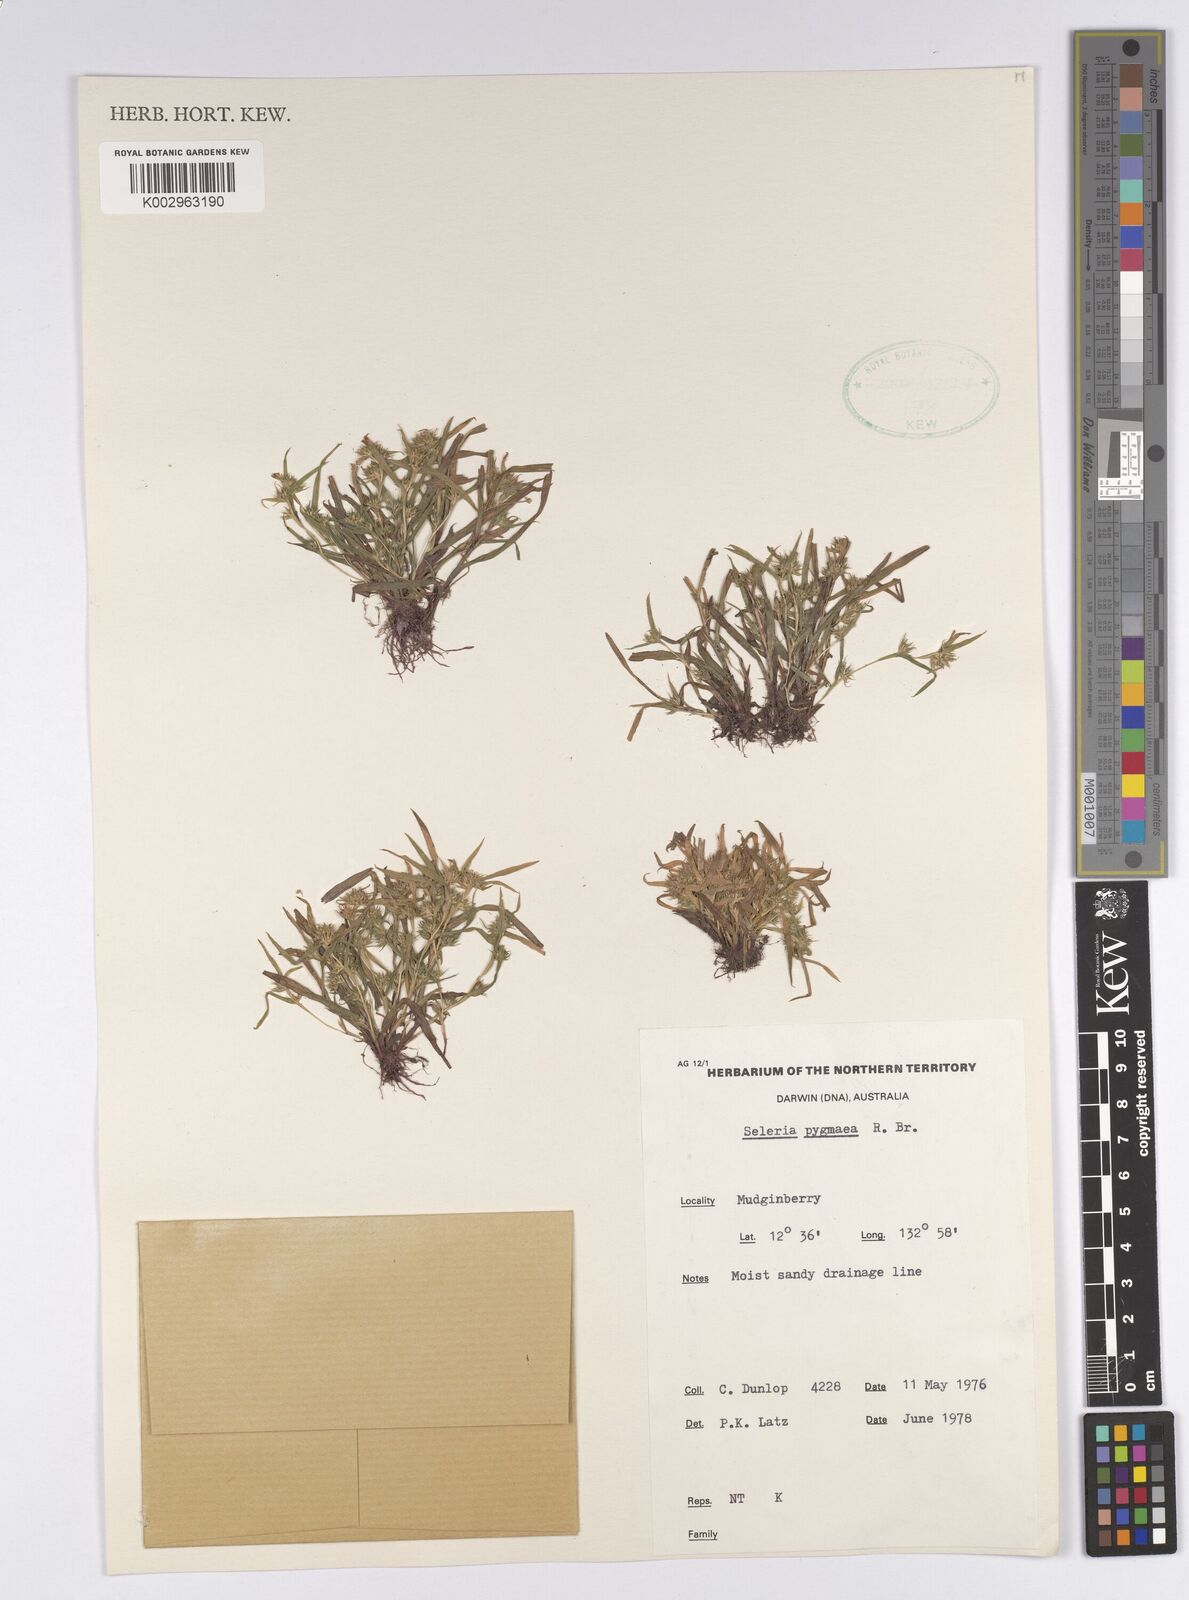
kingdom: Plantae
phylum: Tracheophyta
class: Liliopsida
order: Poales
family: Cyperaceae
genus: Diplacrum
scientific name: Diplacrum pygmaeum
